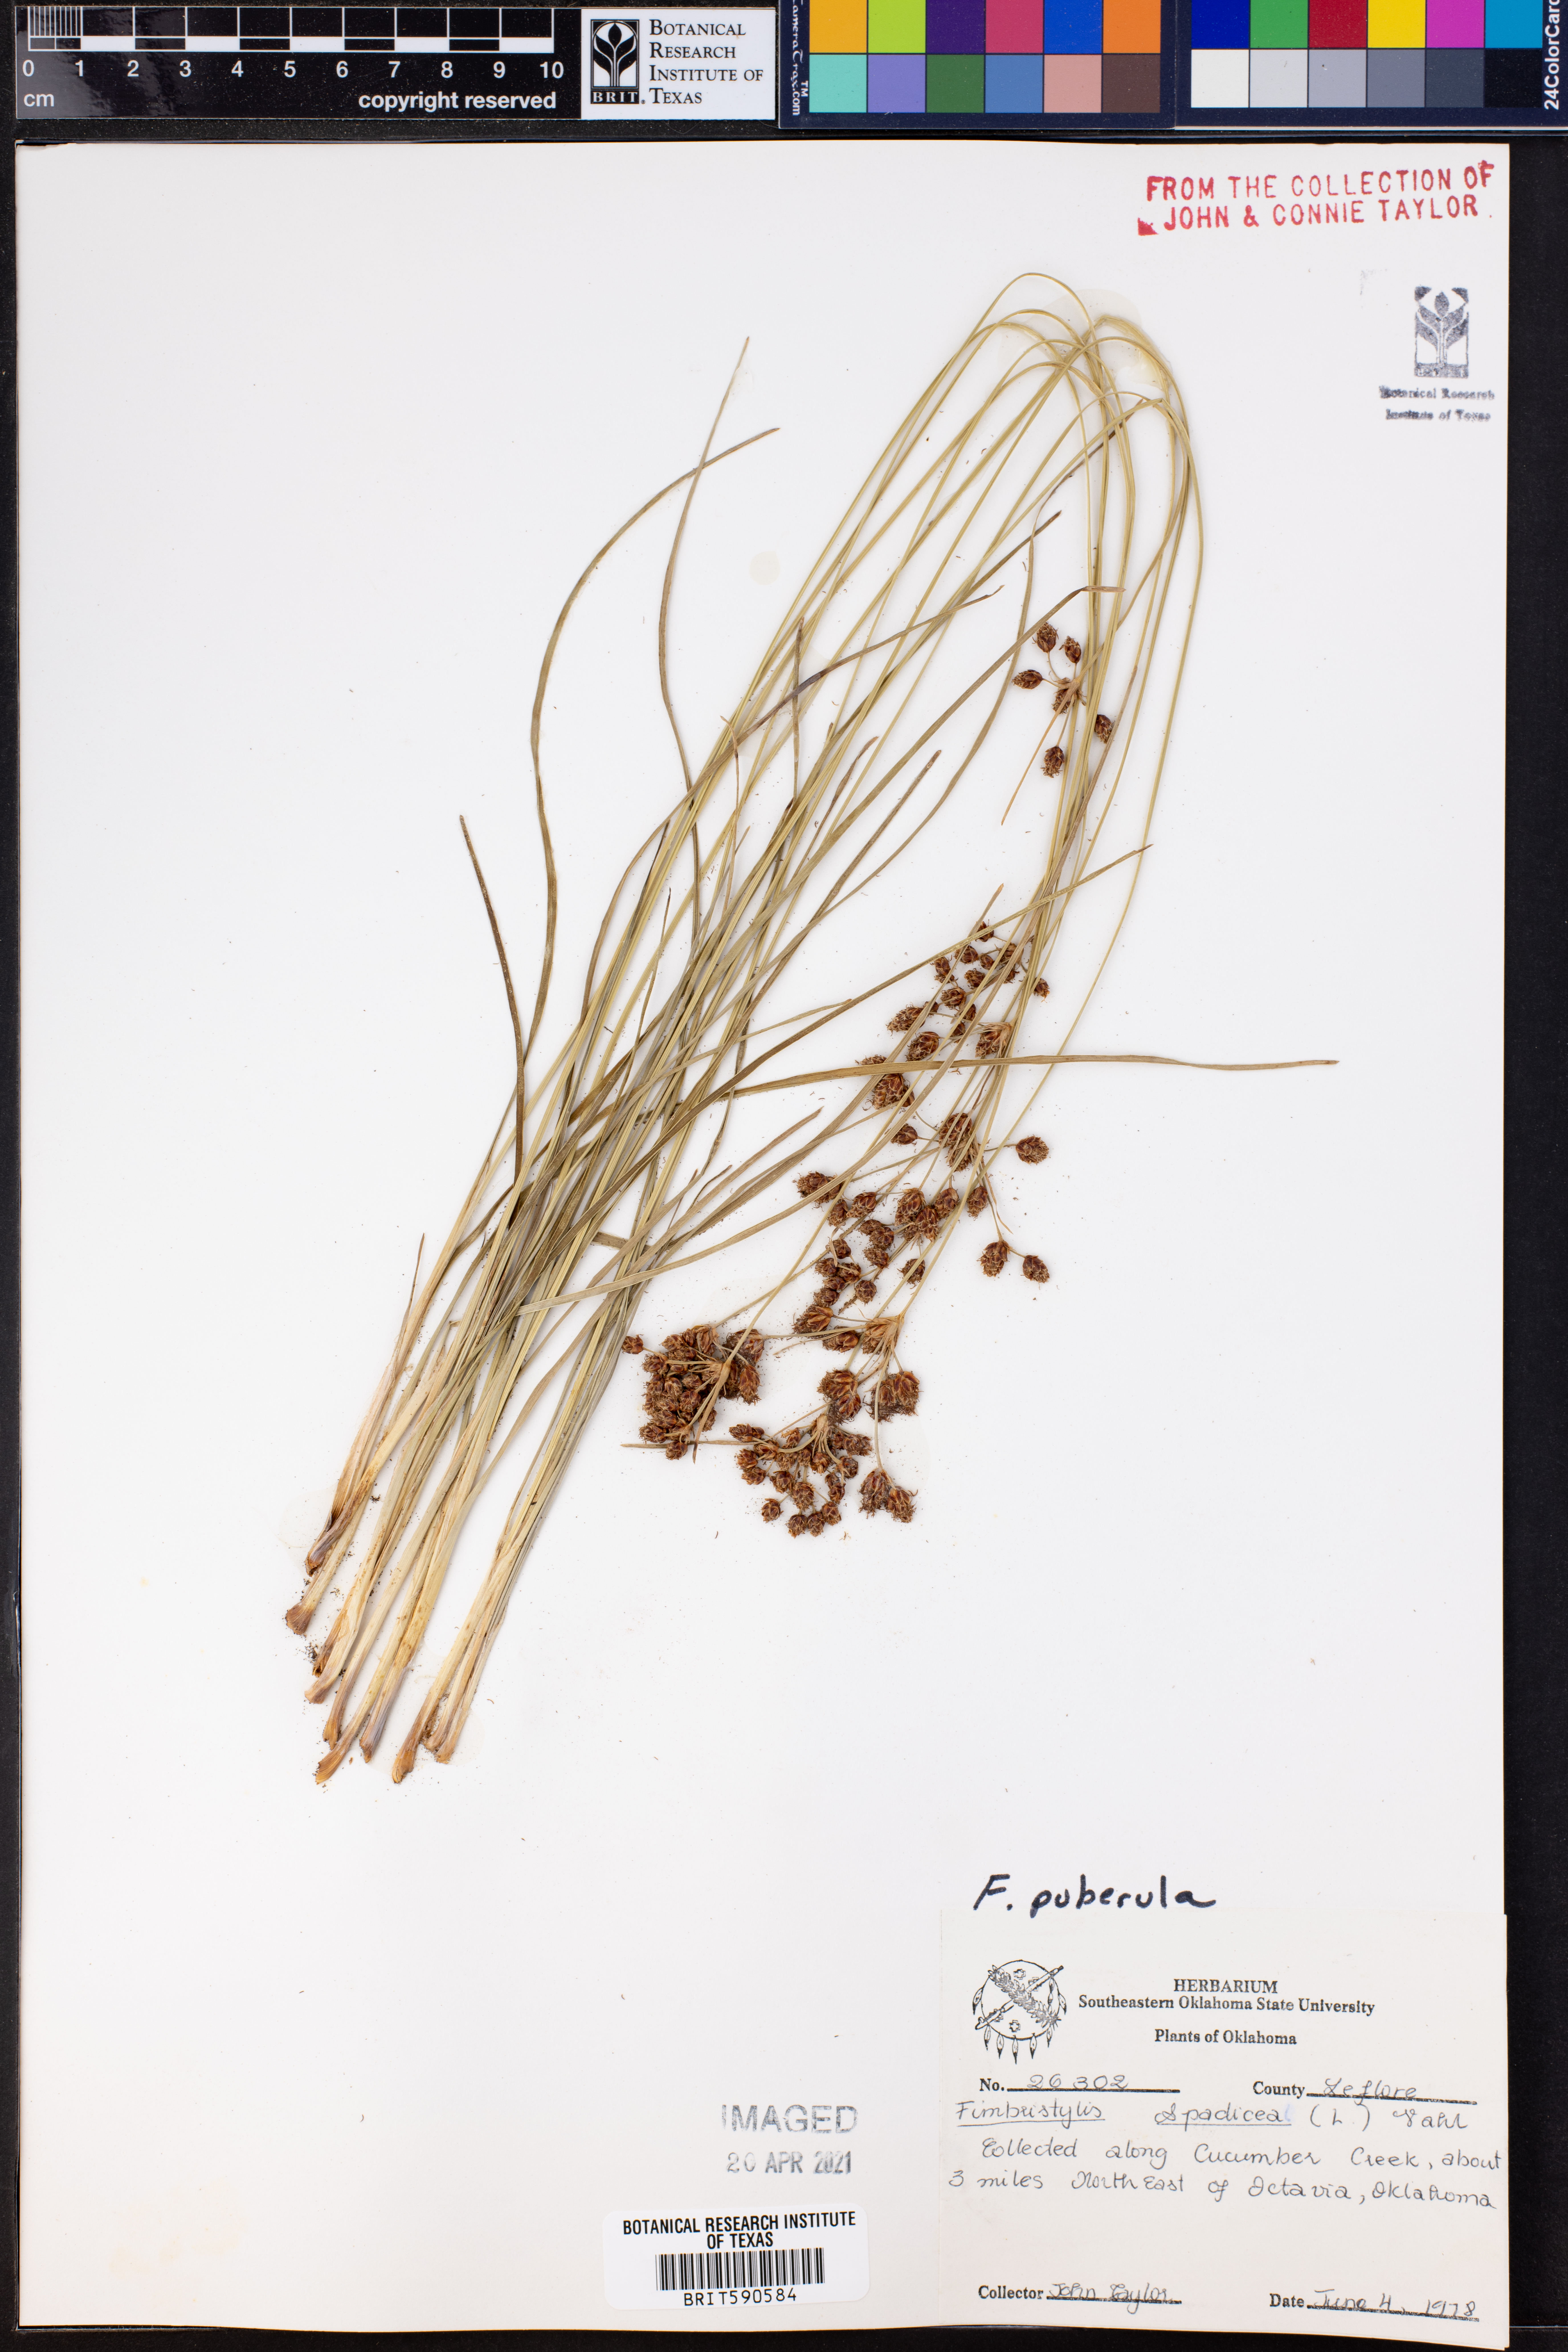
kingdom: Plantae
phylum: Tracheophyta
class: Liliopsida
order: Poales
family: Cyperaceae
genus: Fimbristylis
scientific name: Fimbristylis puberula
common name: Hairy fimbristylis
